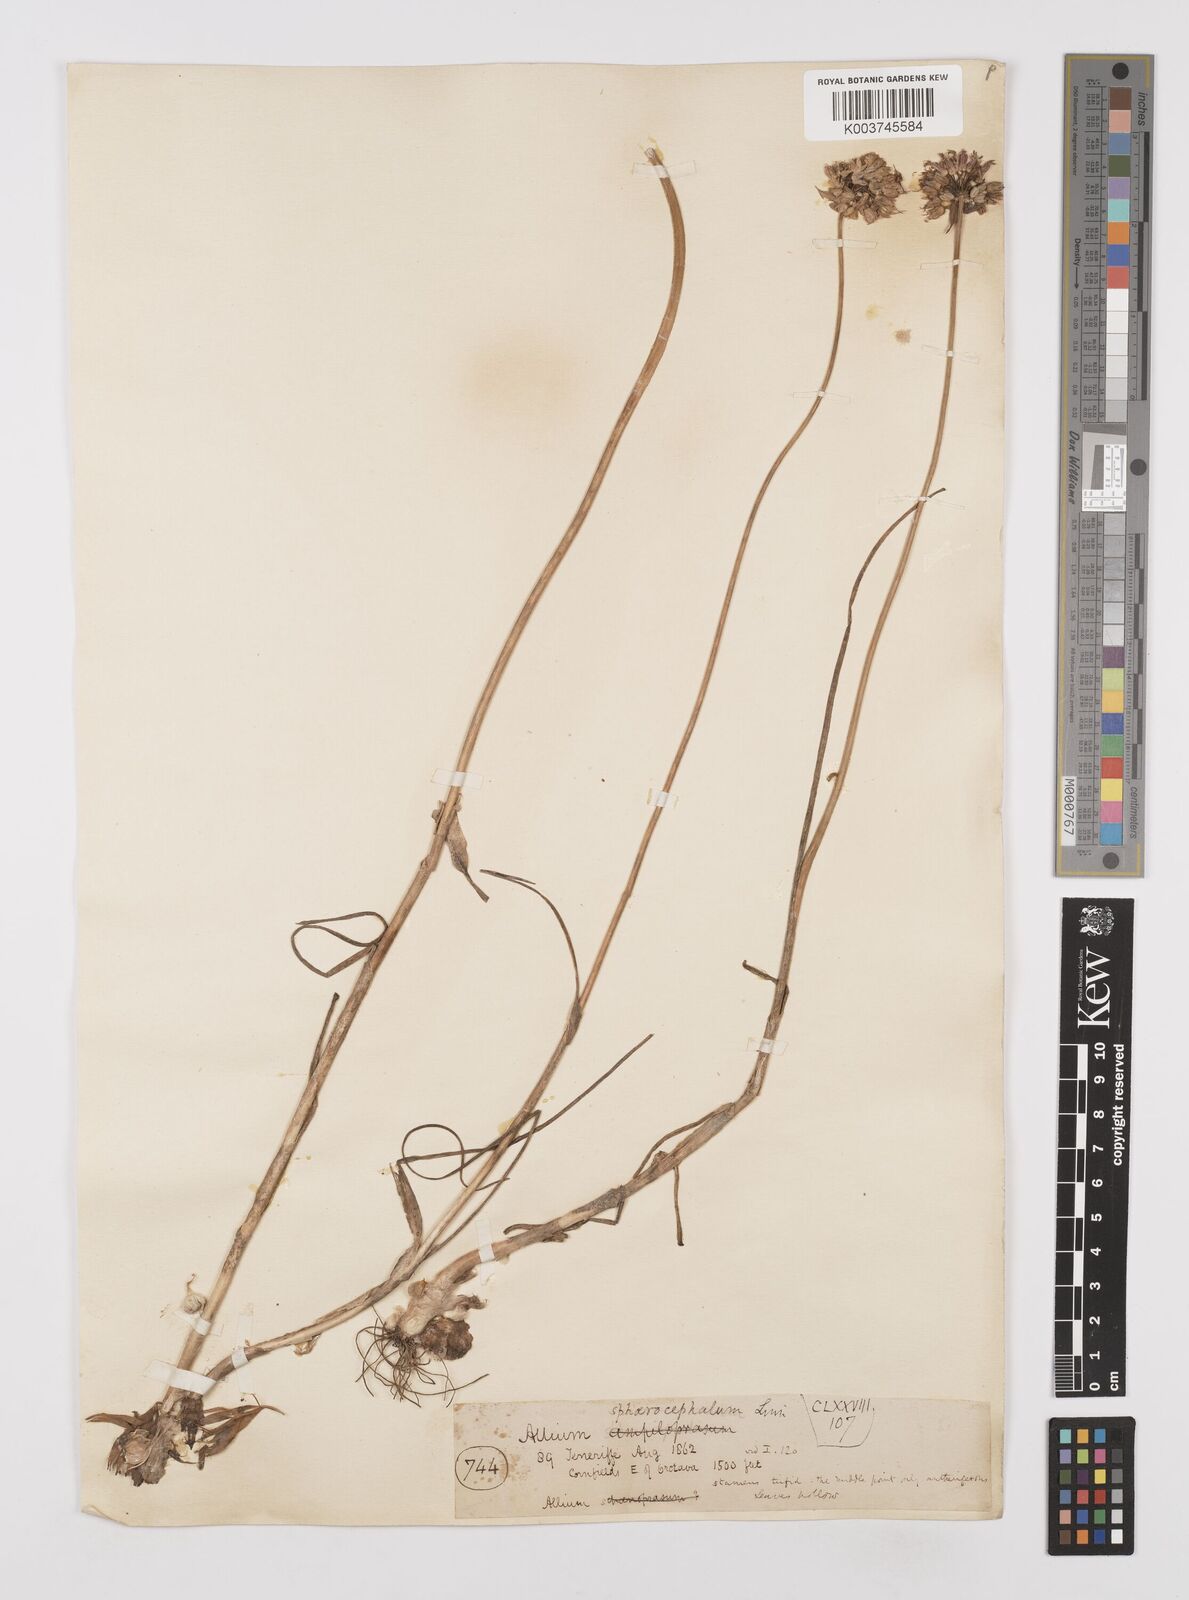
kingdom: Plantae
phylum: Tracheophyta
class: Liliopsida
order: Asparagales
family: Amaryllidaceae
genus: Allium
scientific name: Allium sphaerocephalon
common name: Round-headed leek
